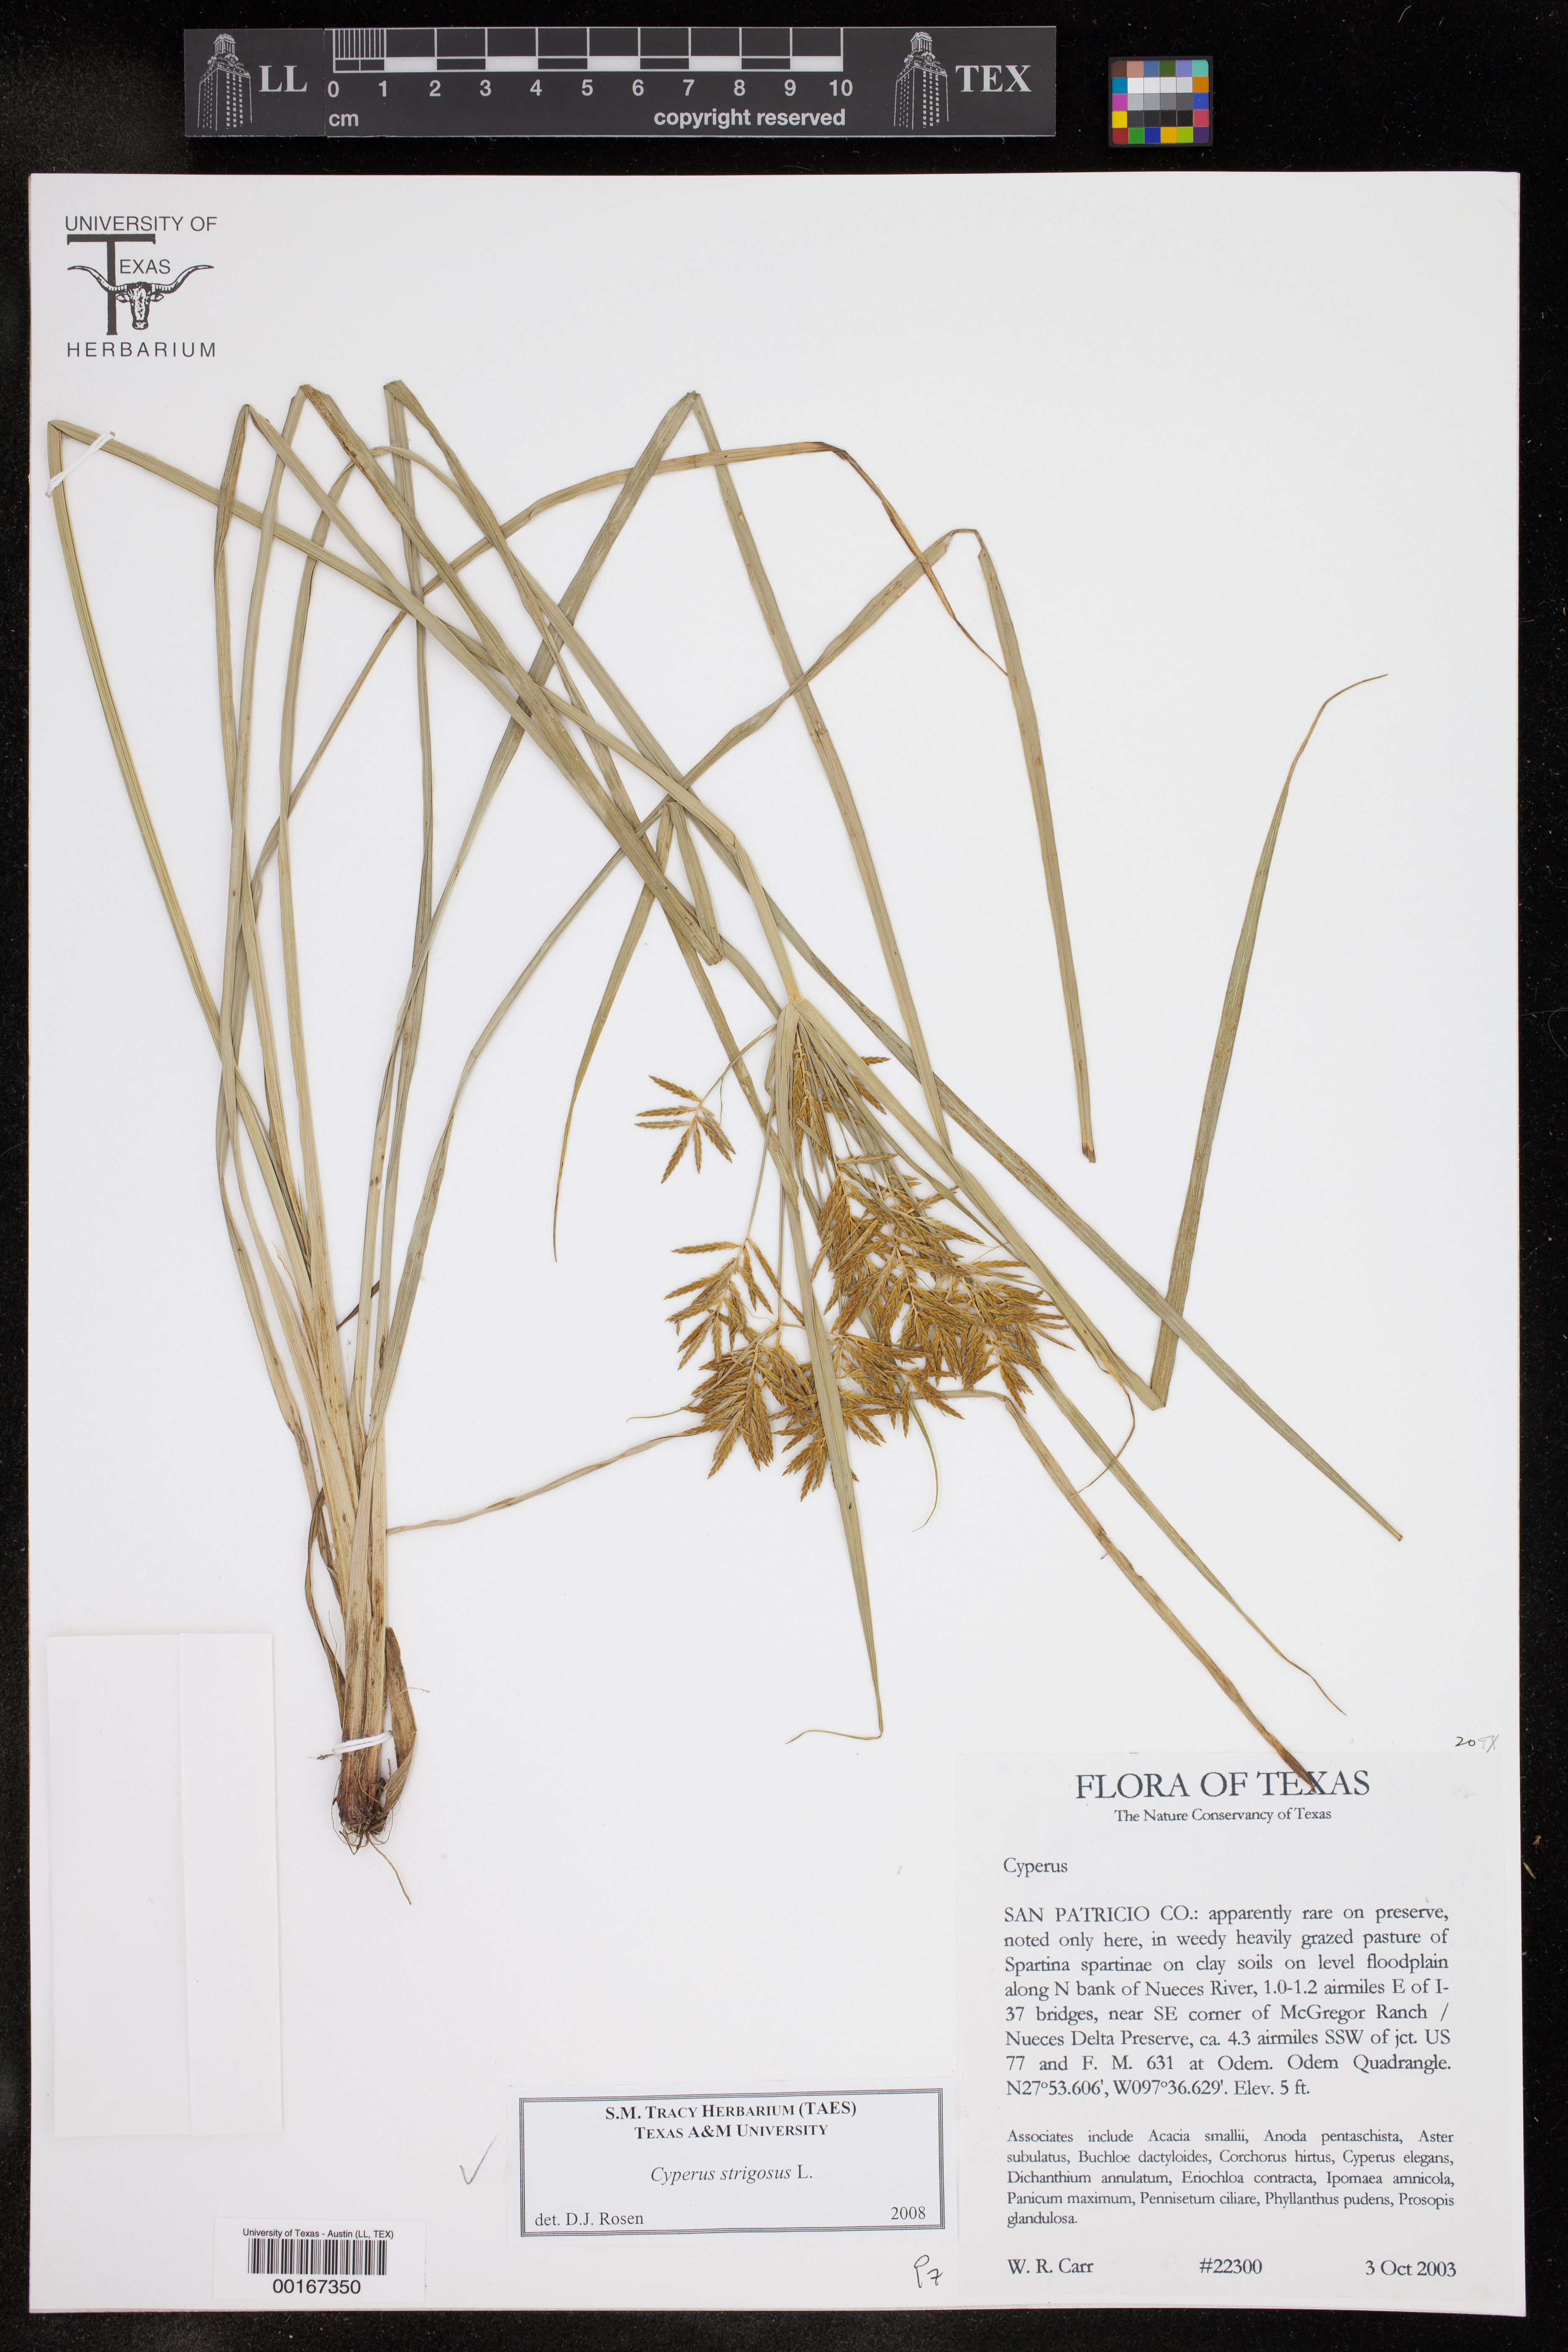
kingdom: Plantae
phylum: Tracheophyta
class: Liliopsida
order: Poales
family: Cyperaceae
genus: Cyperus
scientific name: Cyperus strigosus
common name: False nutsedge
